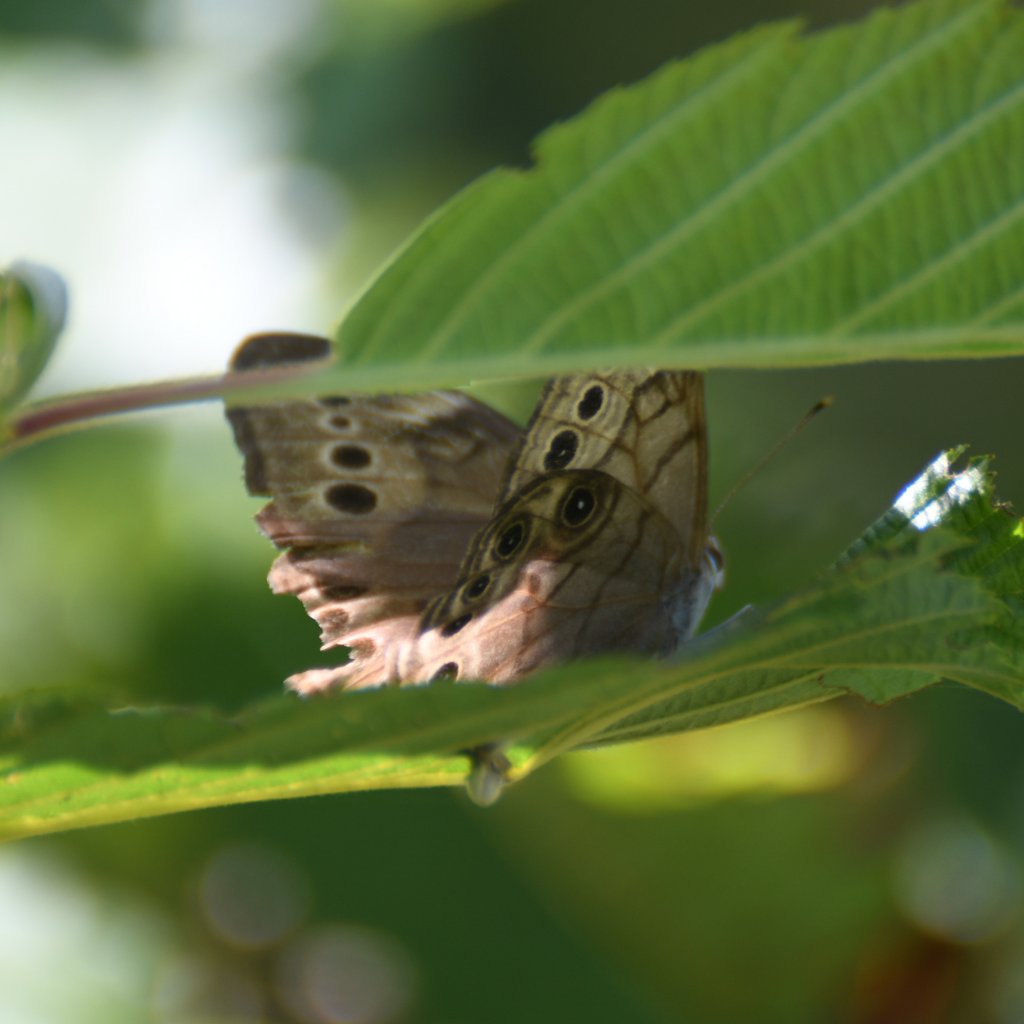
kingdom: Animalia
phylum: Arthropoda
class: Insecta
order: Lepidoptera
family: Nymphalidae
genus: Lethe
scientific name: Lethe anthedon
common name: Northern Pearly-Eye
